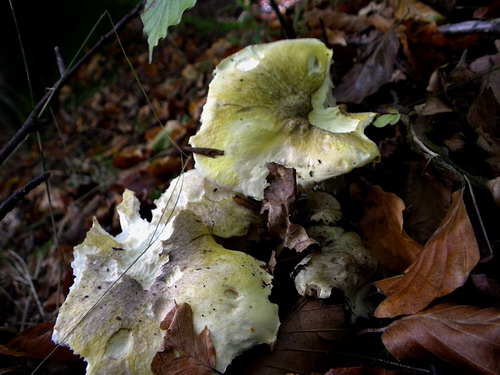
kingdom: Fungi
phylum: Basidiomycota
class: Agaricomycetes
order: Agaricales
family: Tricholomataceae
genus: Tricholoma
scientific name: Tricholoma sejunctum
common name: grøngul ridderhat
